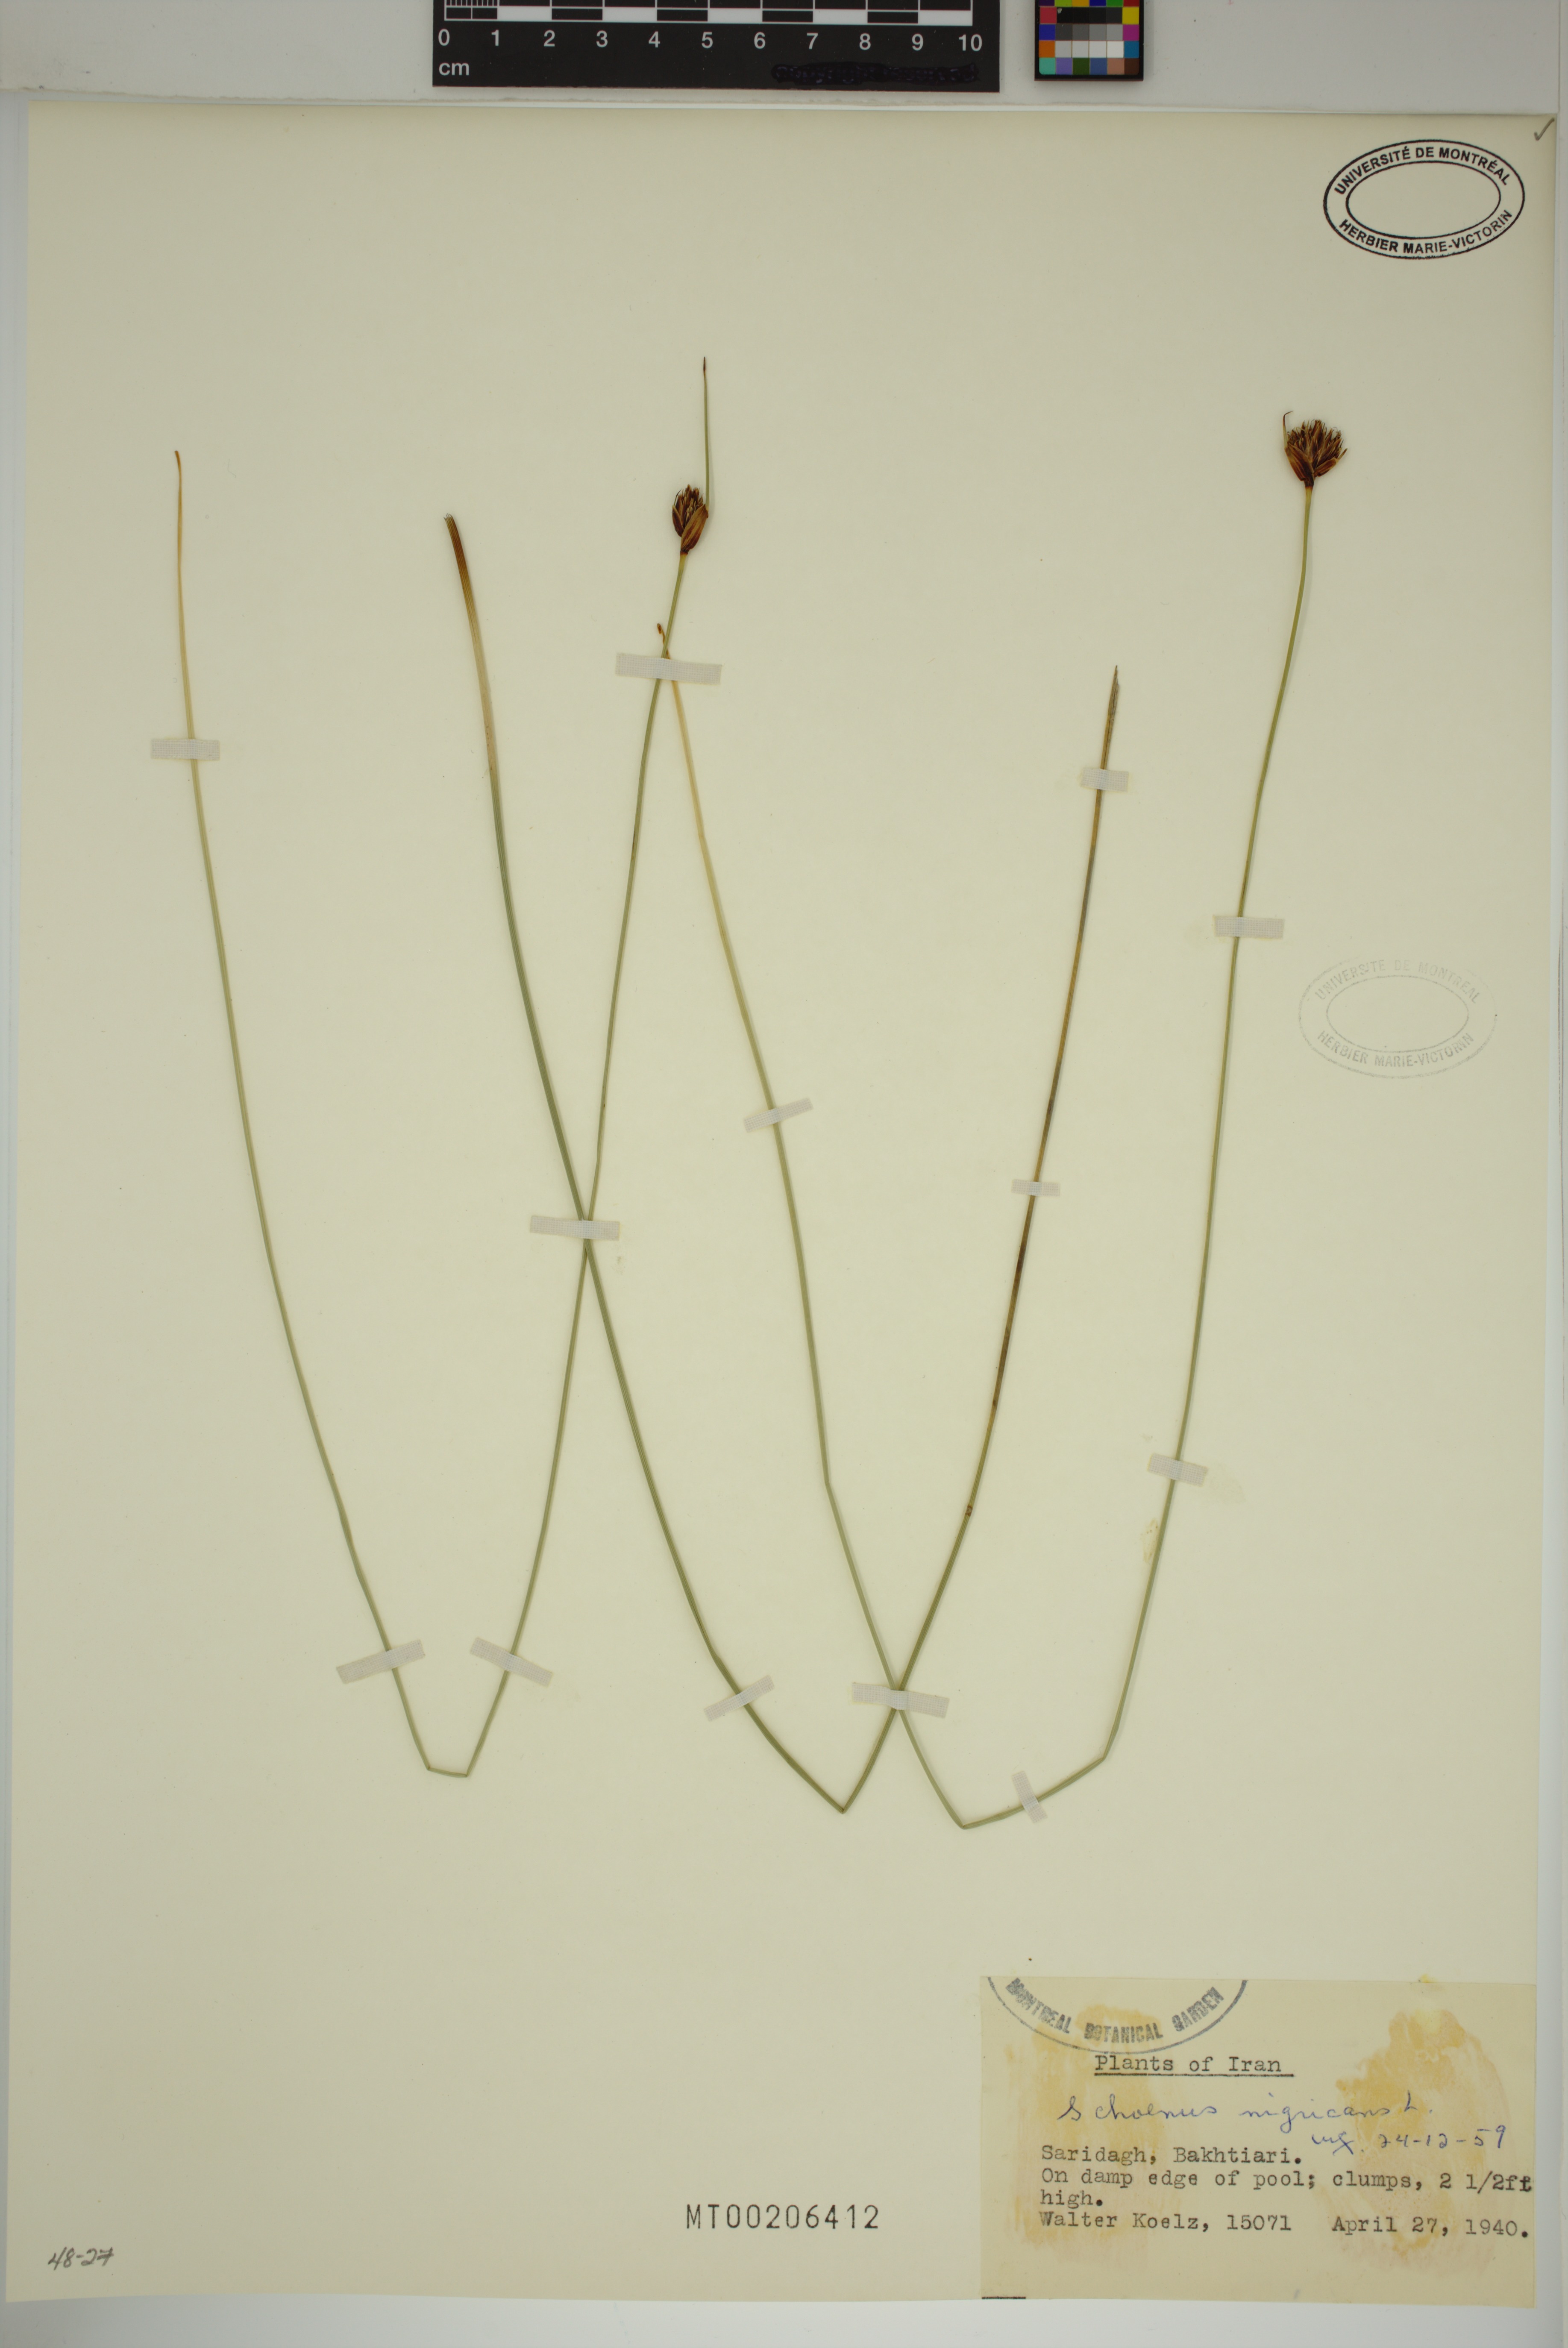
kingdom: Plantae
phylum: Tracheophyta
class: Liliopsida
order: Poales
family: Cyperaceae
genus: Schoenus
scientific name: Schoenus nigricans
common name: Black bog-rush
